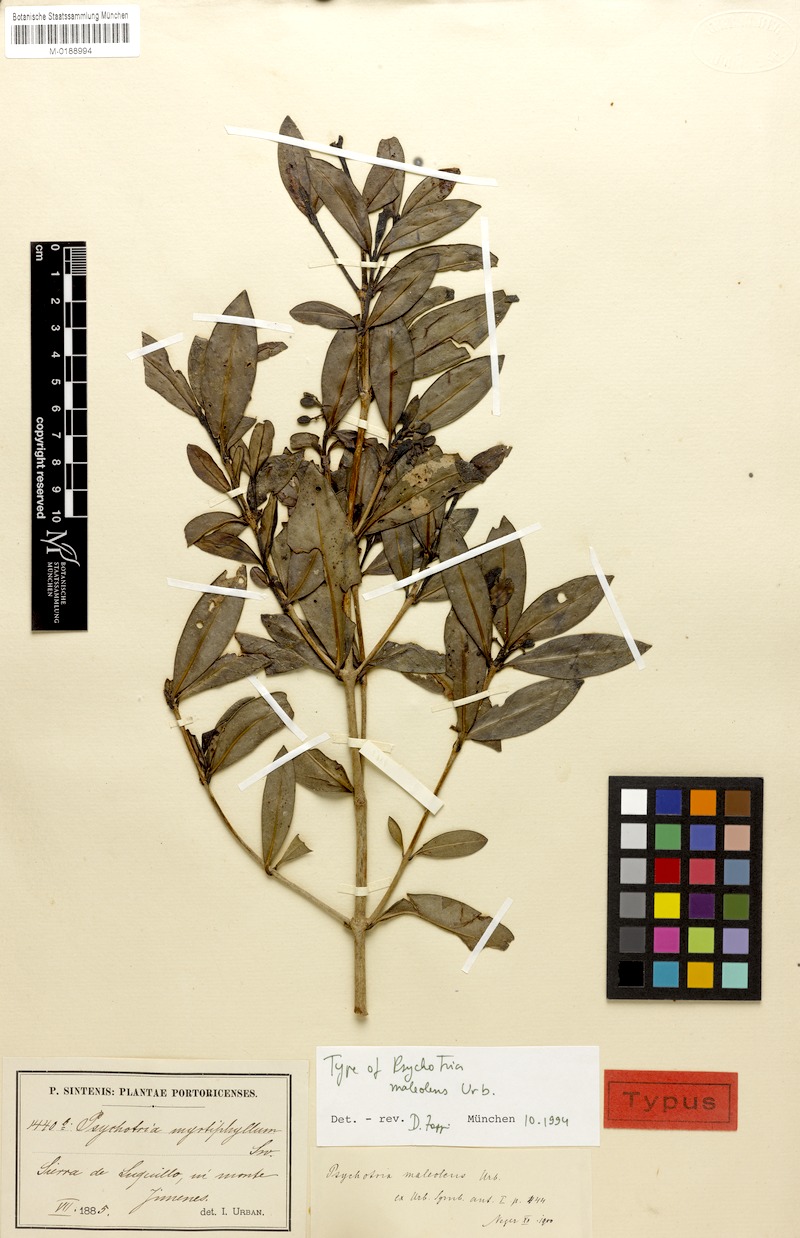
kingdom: Plantae
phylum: Tracheophyta
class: Magnoliopsida
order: Gentianales
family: Rubiaceae
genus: Psychotria
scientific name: Psychotria maleolens
